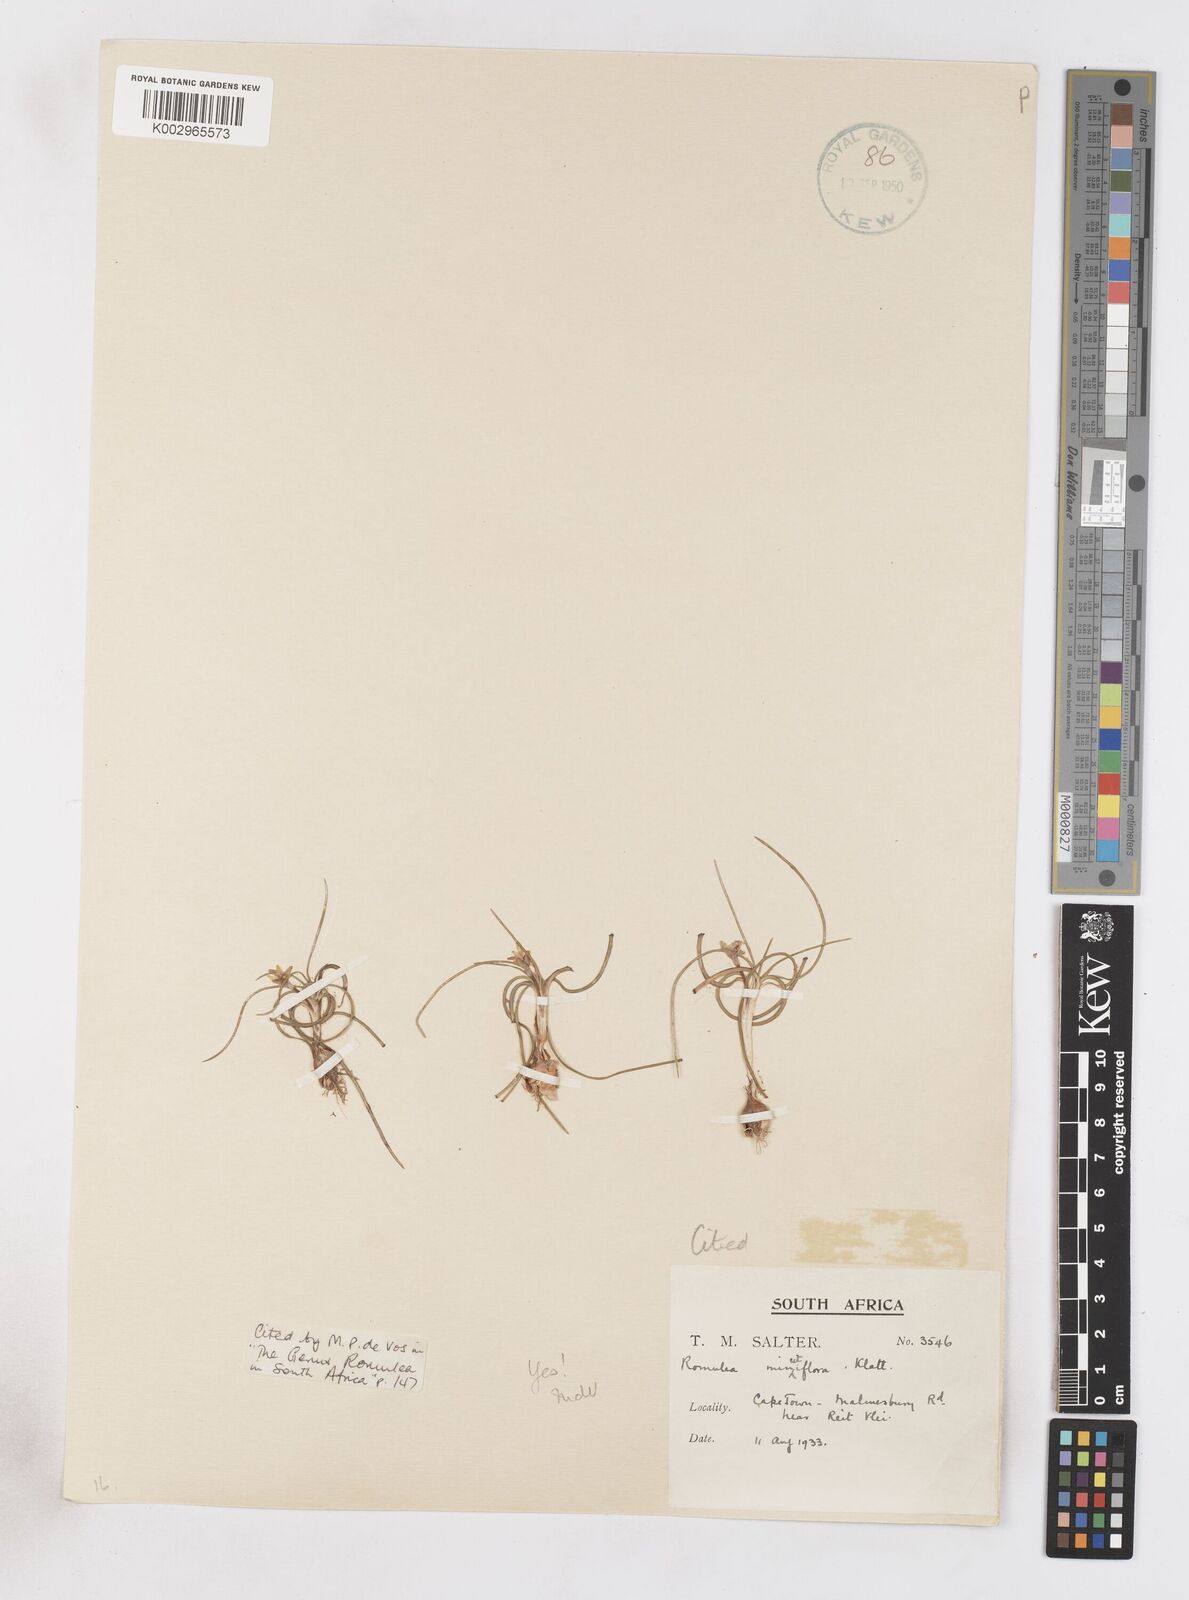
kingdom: Plantae
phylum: Tracheophyta
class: Liliopsida
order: Asparagales
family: Iridaceae
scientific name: Iridaceae
